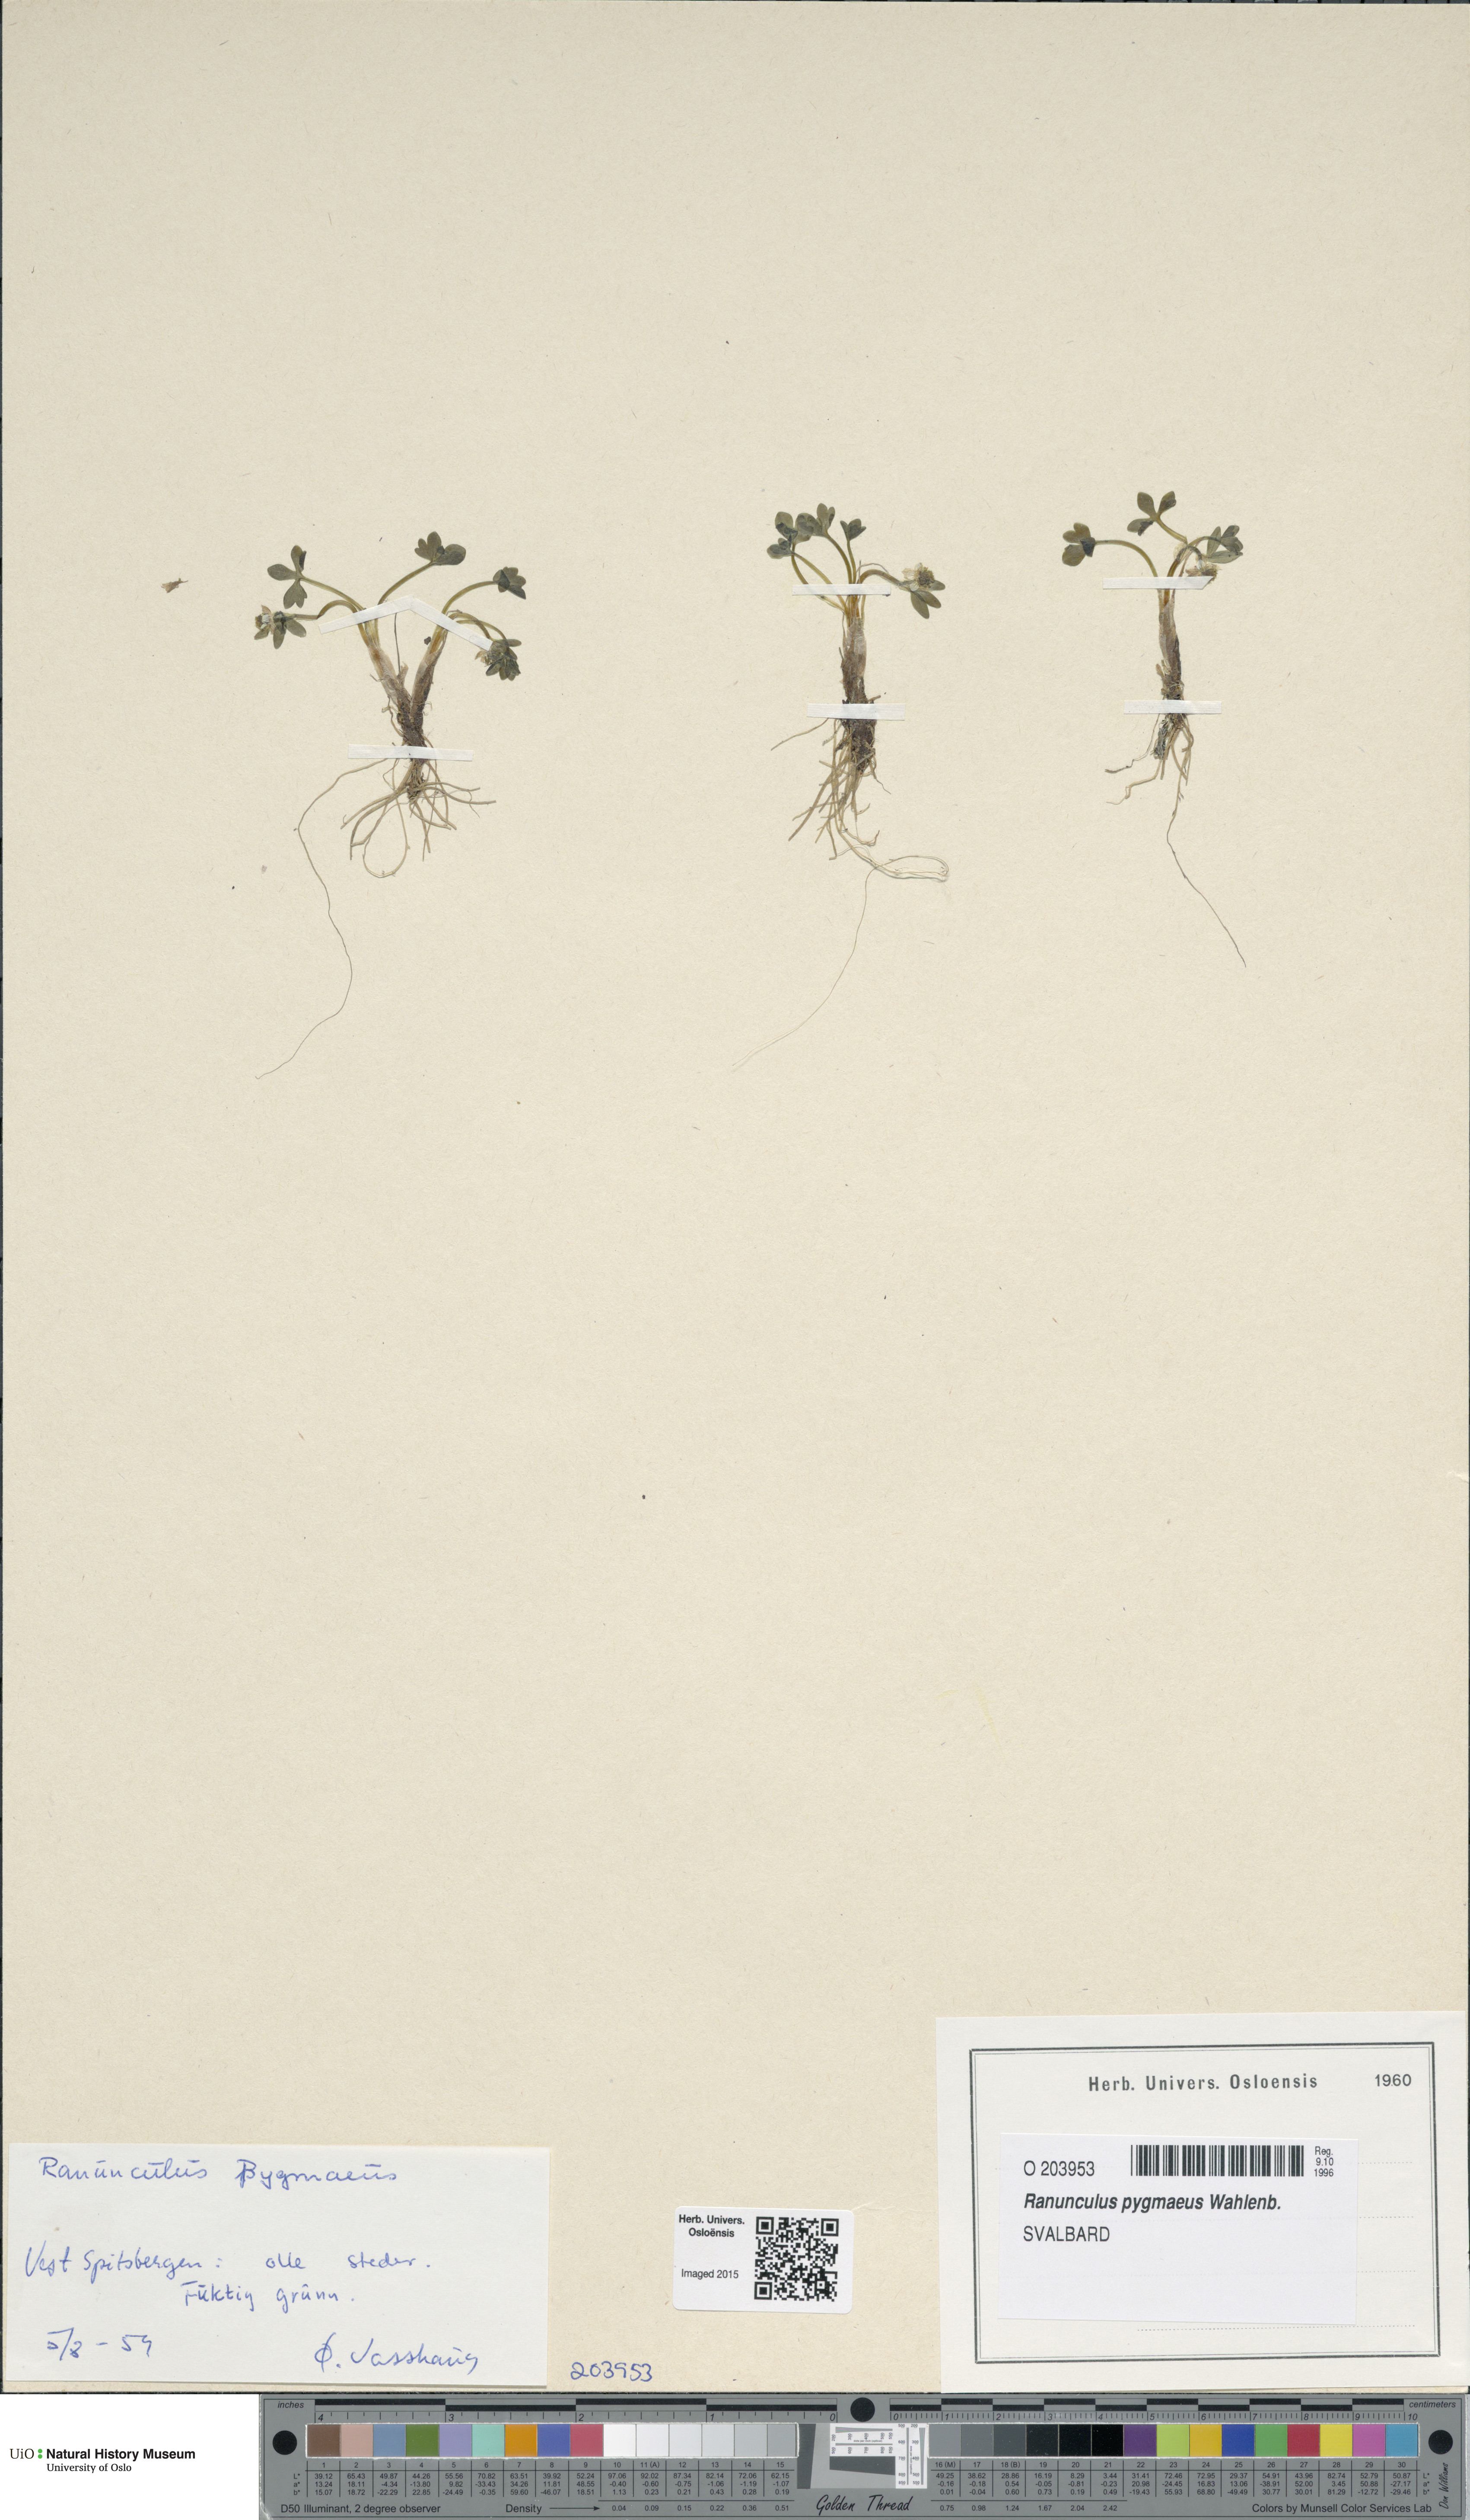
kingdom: Plantae
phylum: Tracheophyta
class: Magnoliopsida
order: Ranunculales
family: Ranunculaceae
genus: Ranunculus
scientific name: Ranunculus pygmaeus
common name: Dwarf buttercup
